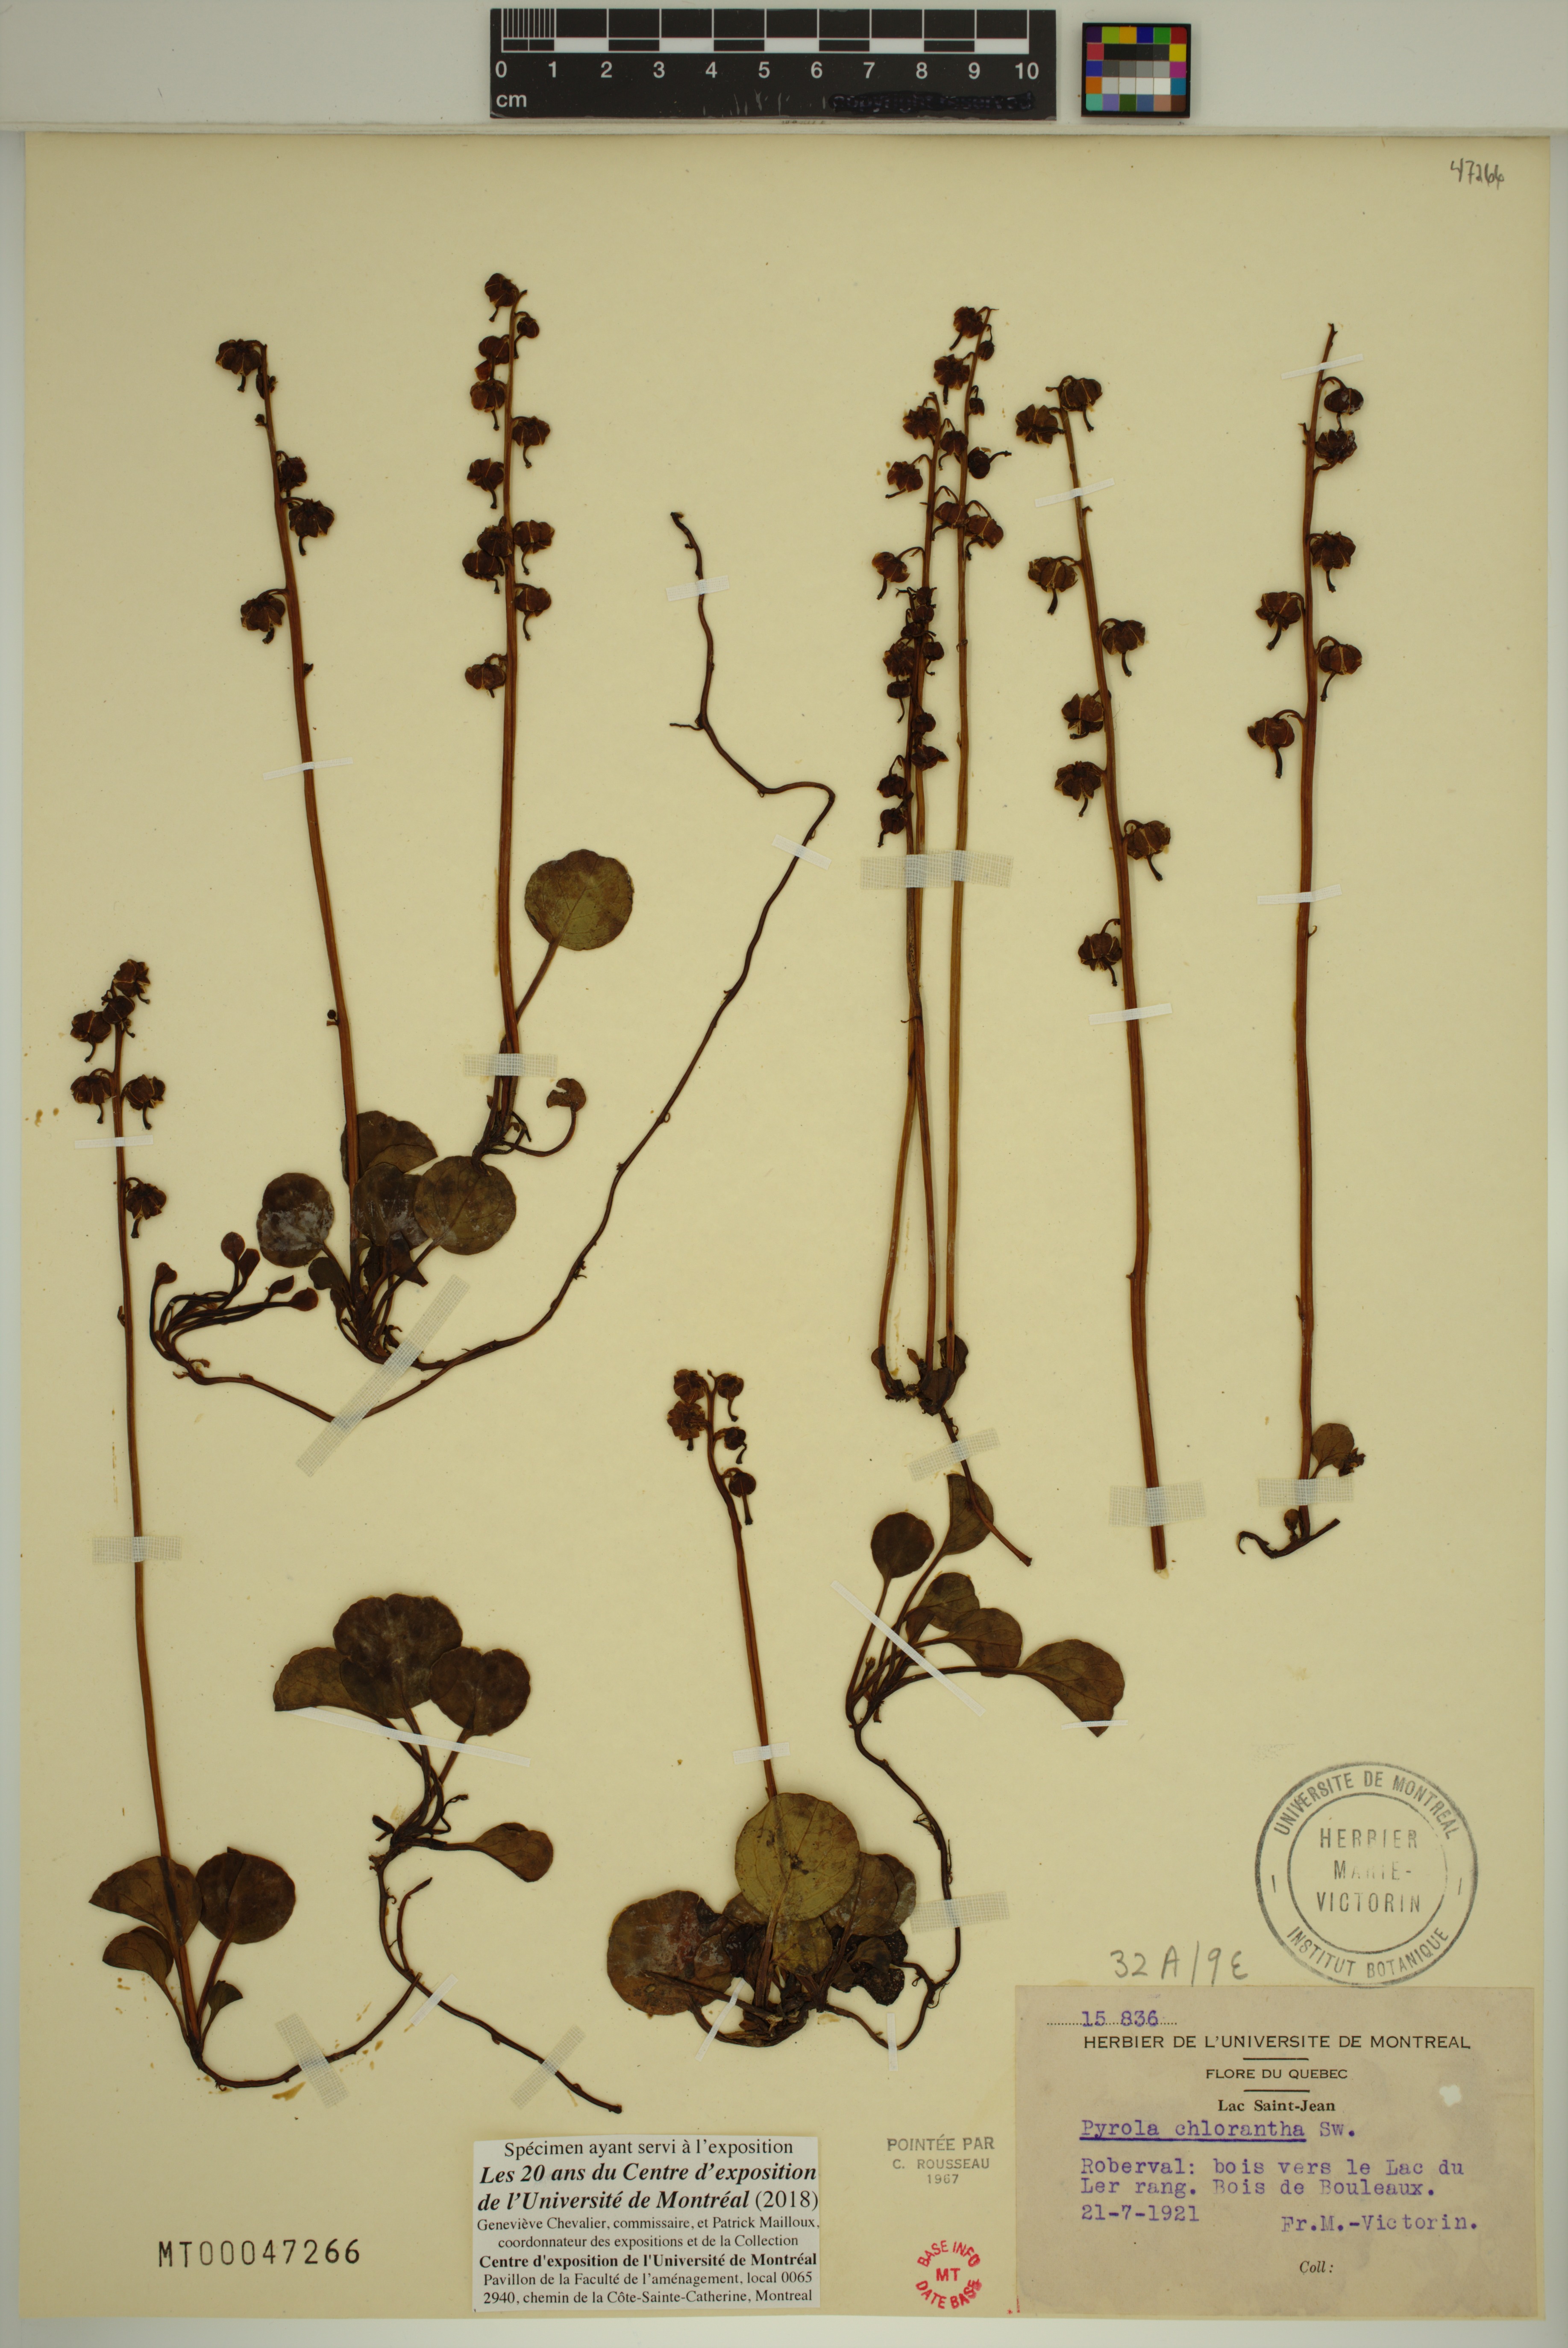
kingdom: Plantae
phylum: Tracheophyta
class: Magnoliopsida
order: Ericales
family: Ericaceae
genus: Pyrola
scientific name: Pyrola chlorantha
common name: Green wintergreen
